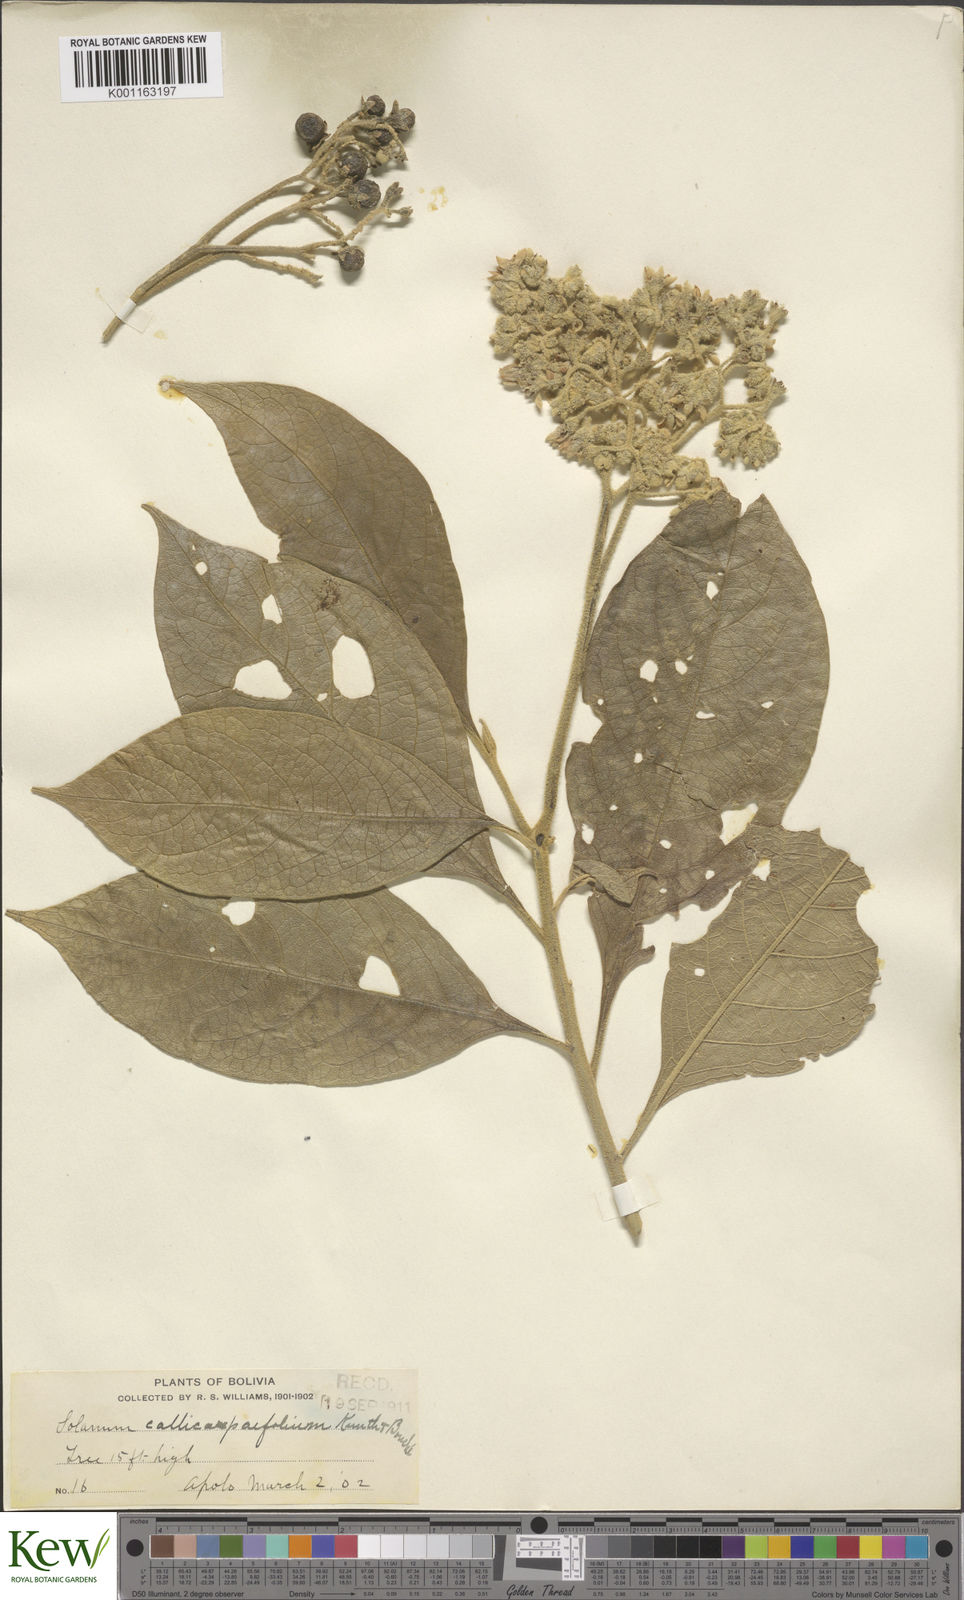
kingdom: Plantae
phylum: Tracheophyta
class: Magnoliopsida
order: Solanales
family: Solanaceae
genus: Solanum
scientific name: Solanum bicolor
